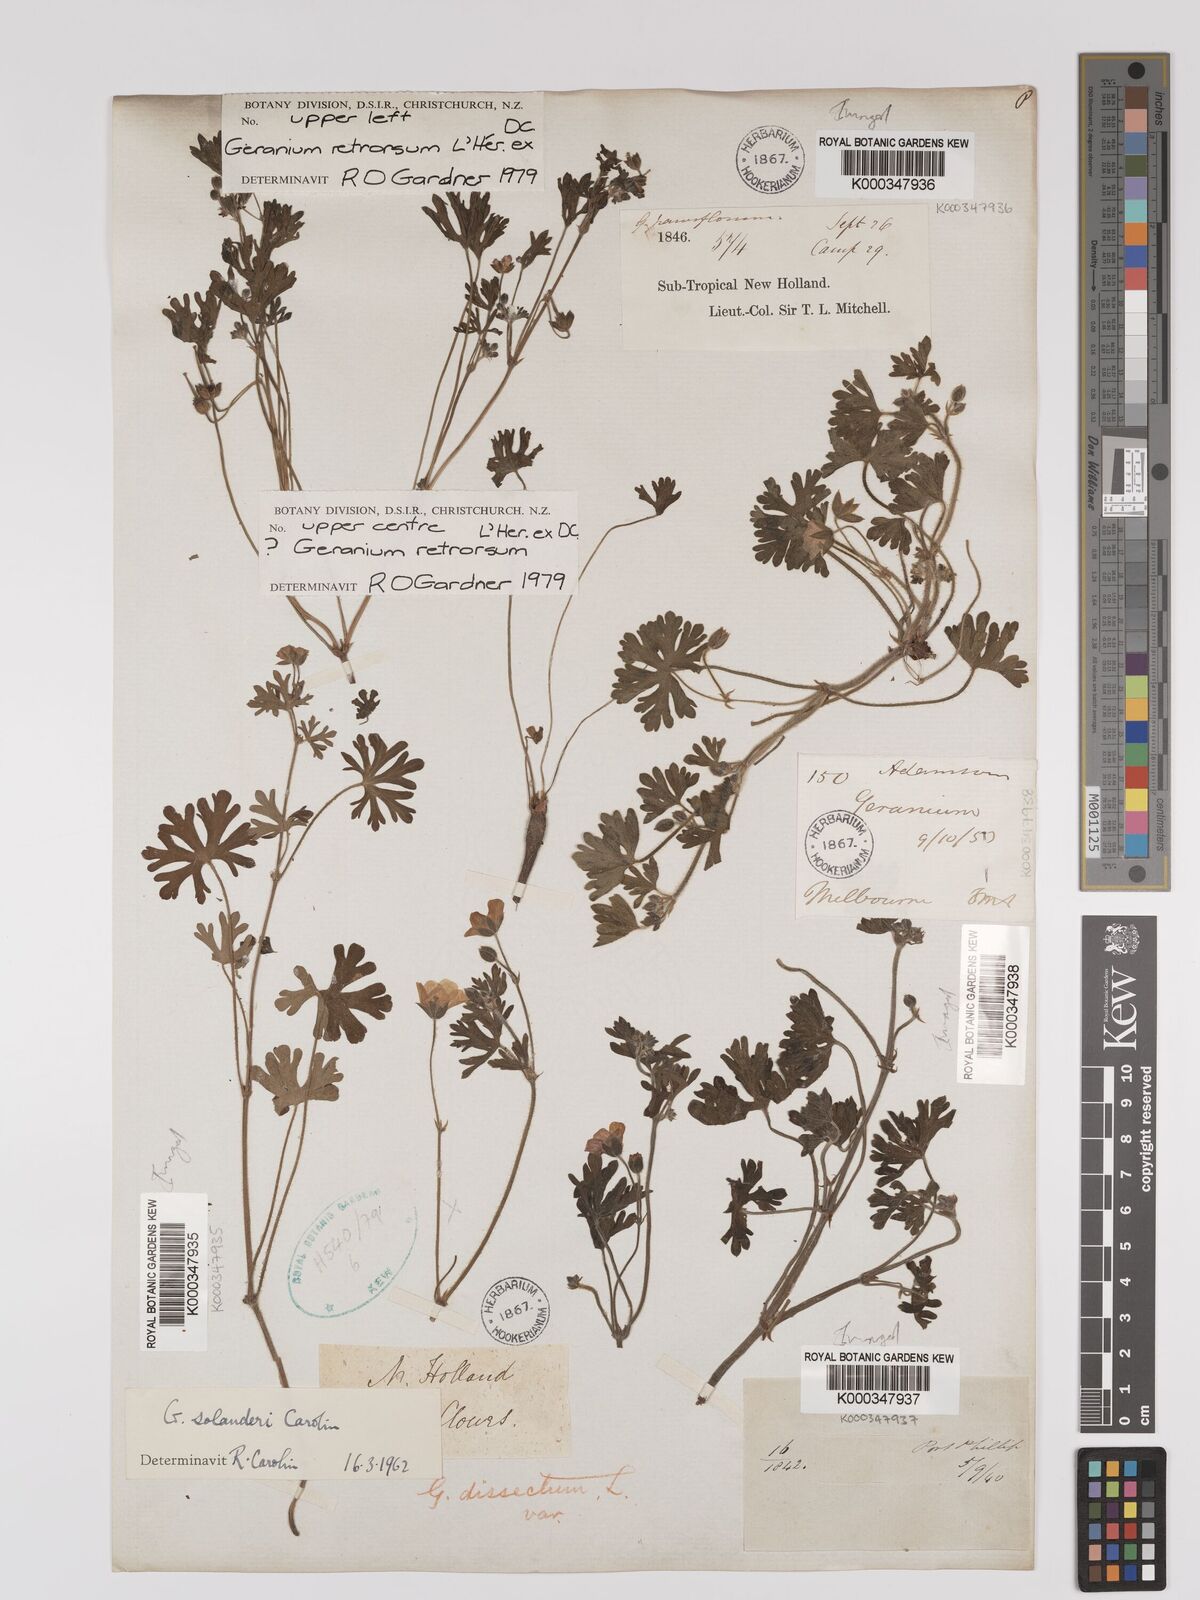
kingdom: Plantae
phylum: Tracheophyta
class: Magnoliopsida
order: Geraniales
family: Geraniaceae
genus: Geranium
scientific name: Geranium retrorsum
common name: New zealand geranium
